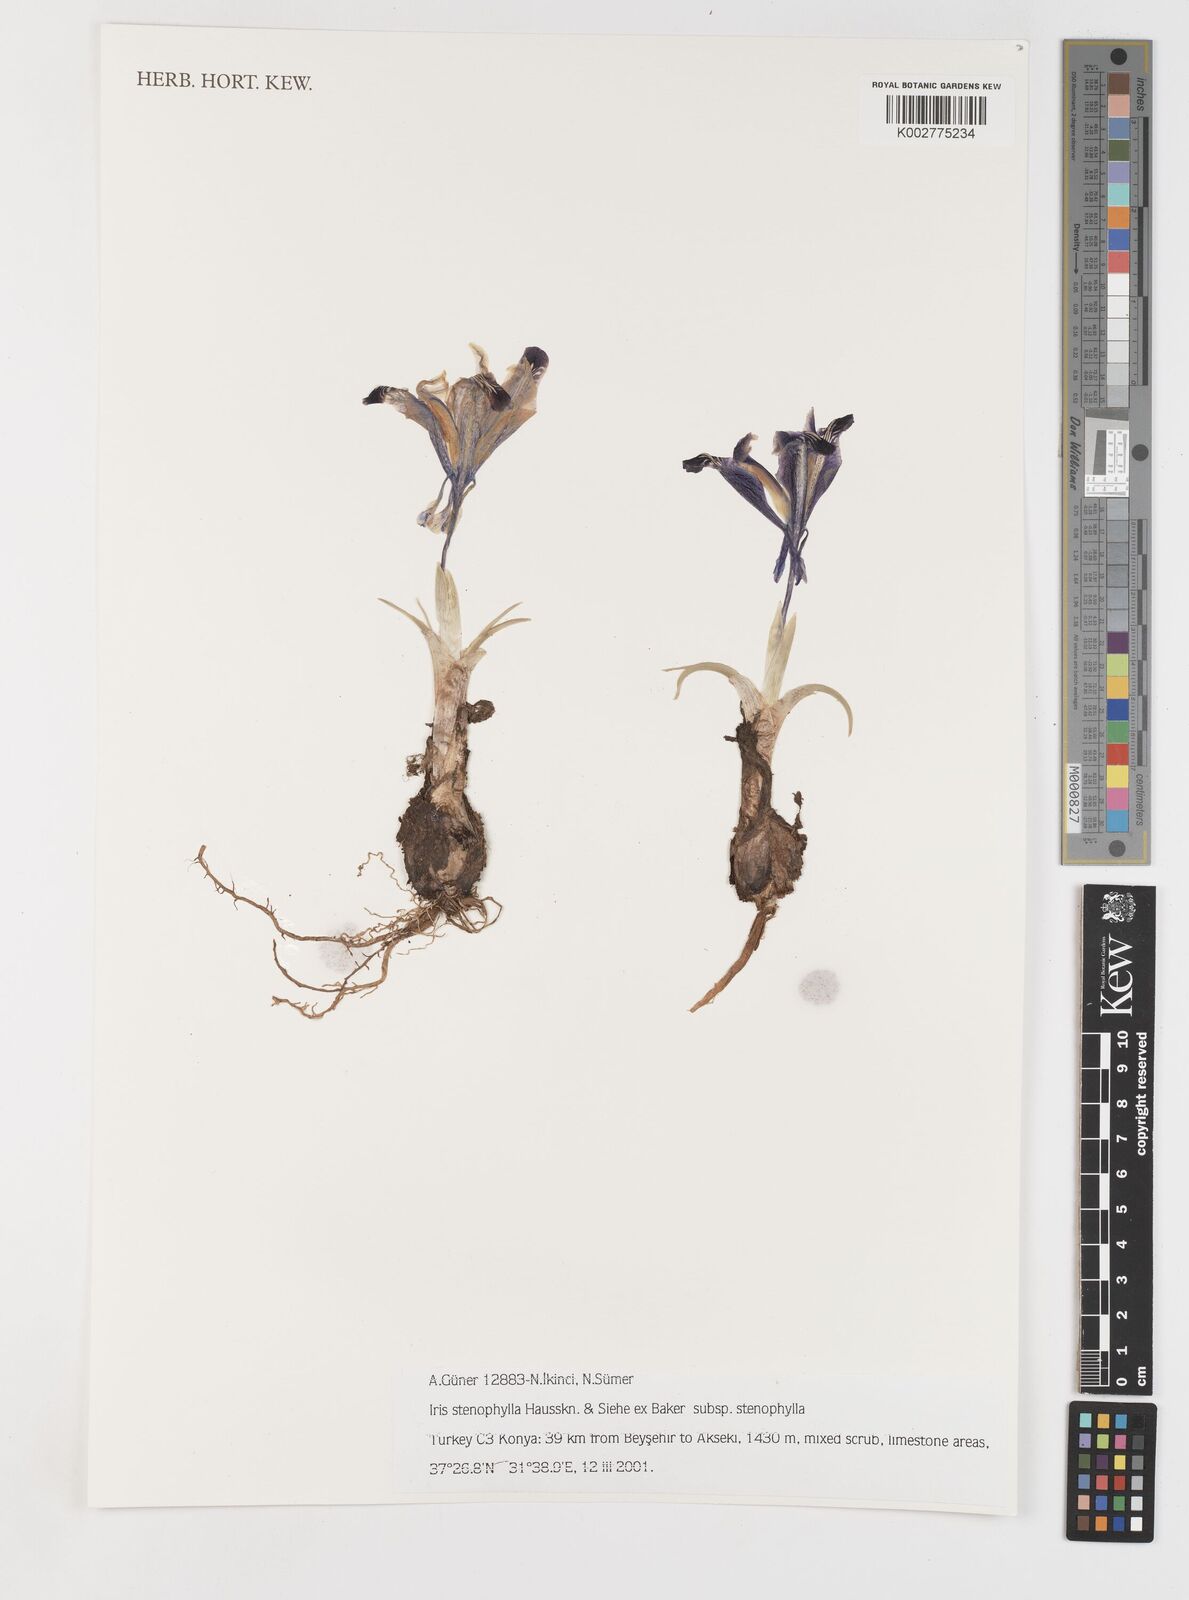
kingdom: Plantae
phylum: Tracheophyta
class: Liliopsida
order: Asparagales
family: Iridaceae
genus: Iris
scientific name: Iris stenophylla
